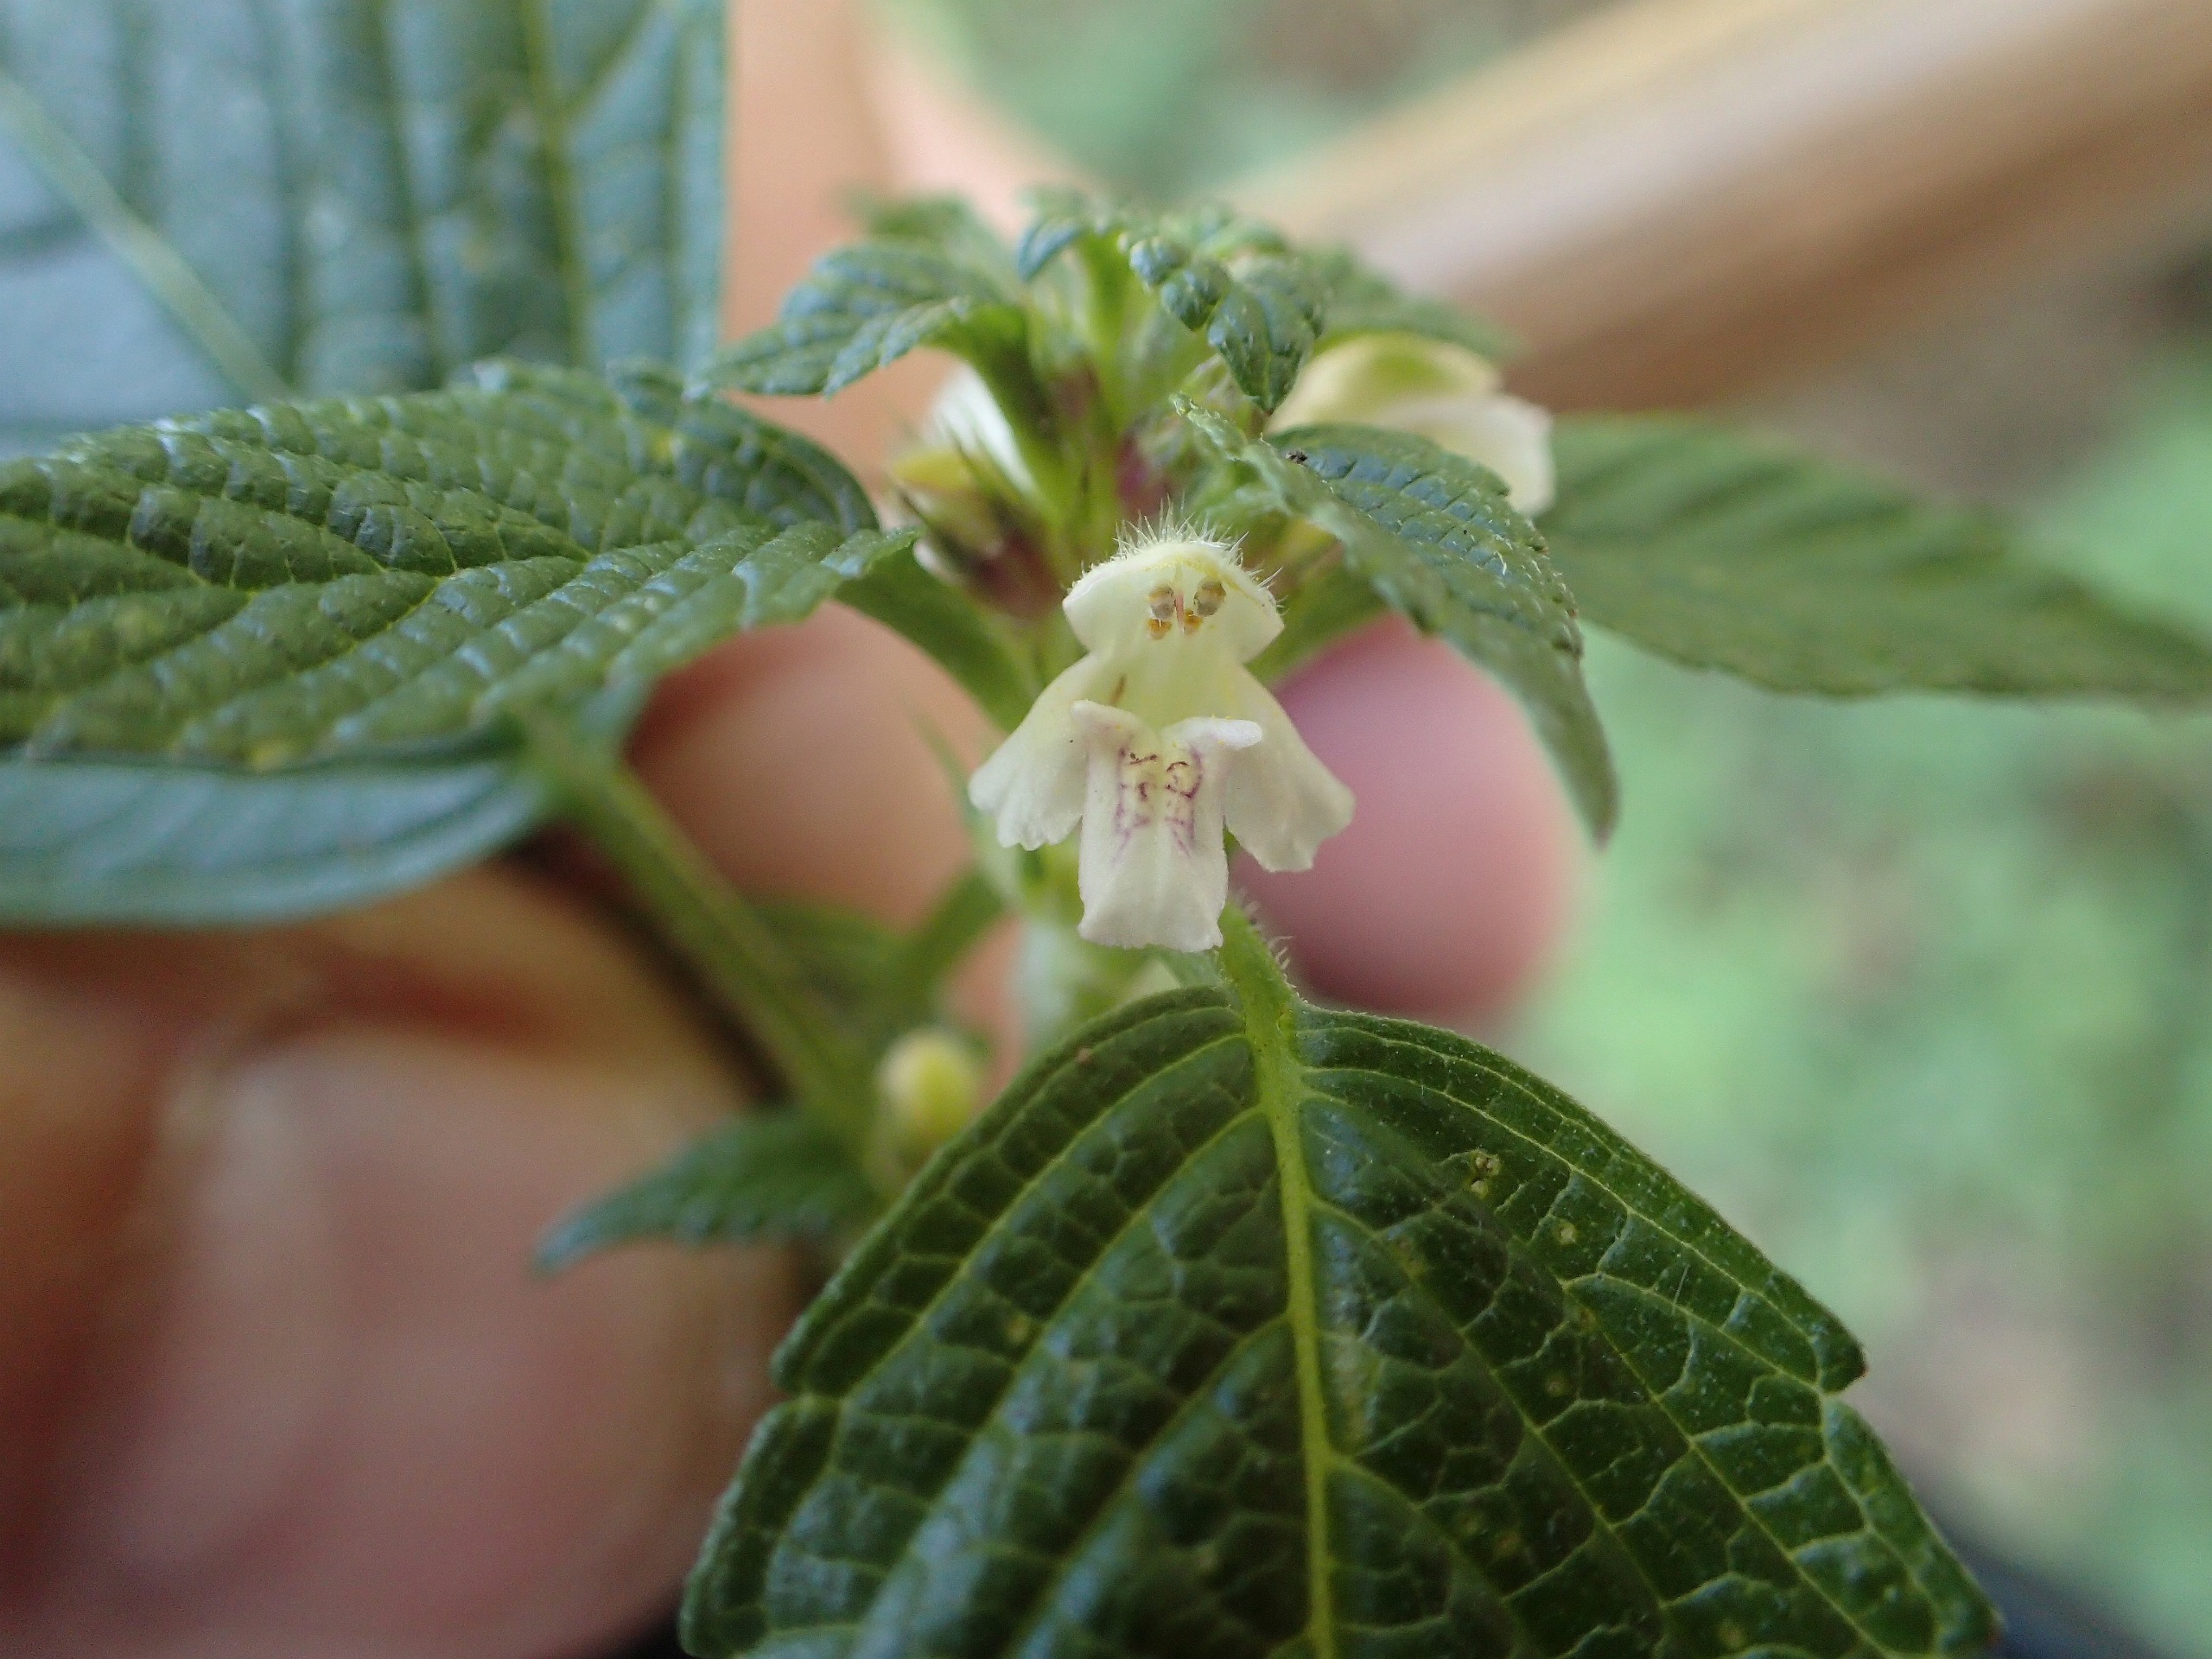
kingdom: Plantae
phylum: Tracheophyta
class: Magnoliopsida
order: Lamiales
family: Lamiaceae
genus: Galeopsis
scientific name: Galeopsis tetrahit
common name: Almindelig hanekro
